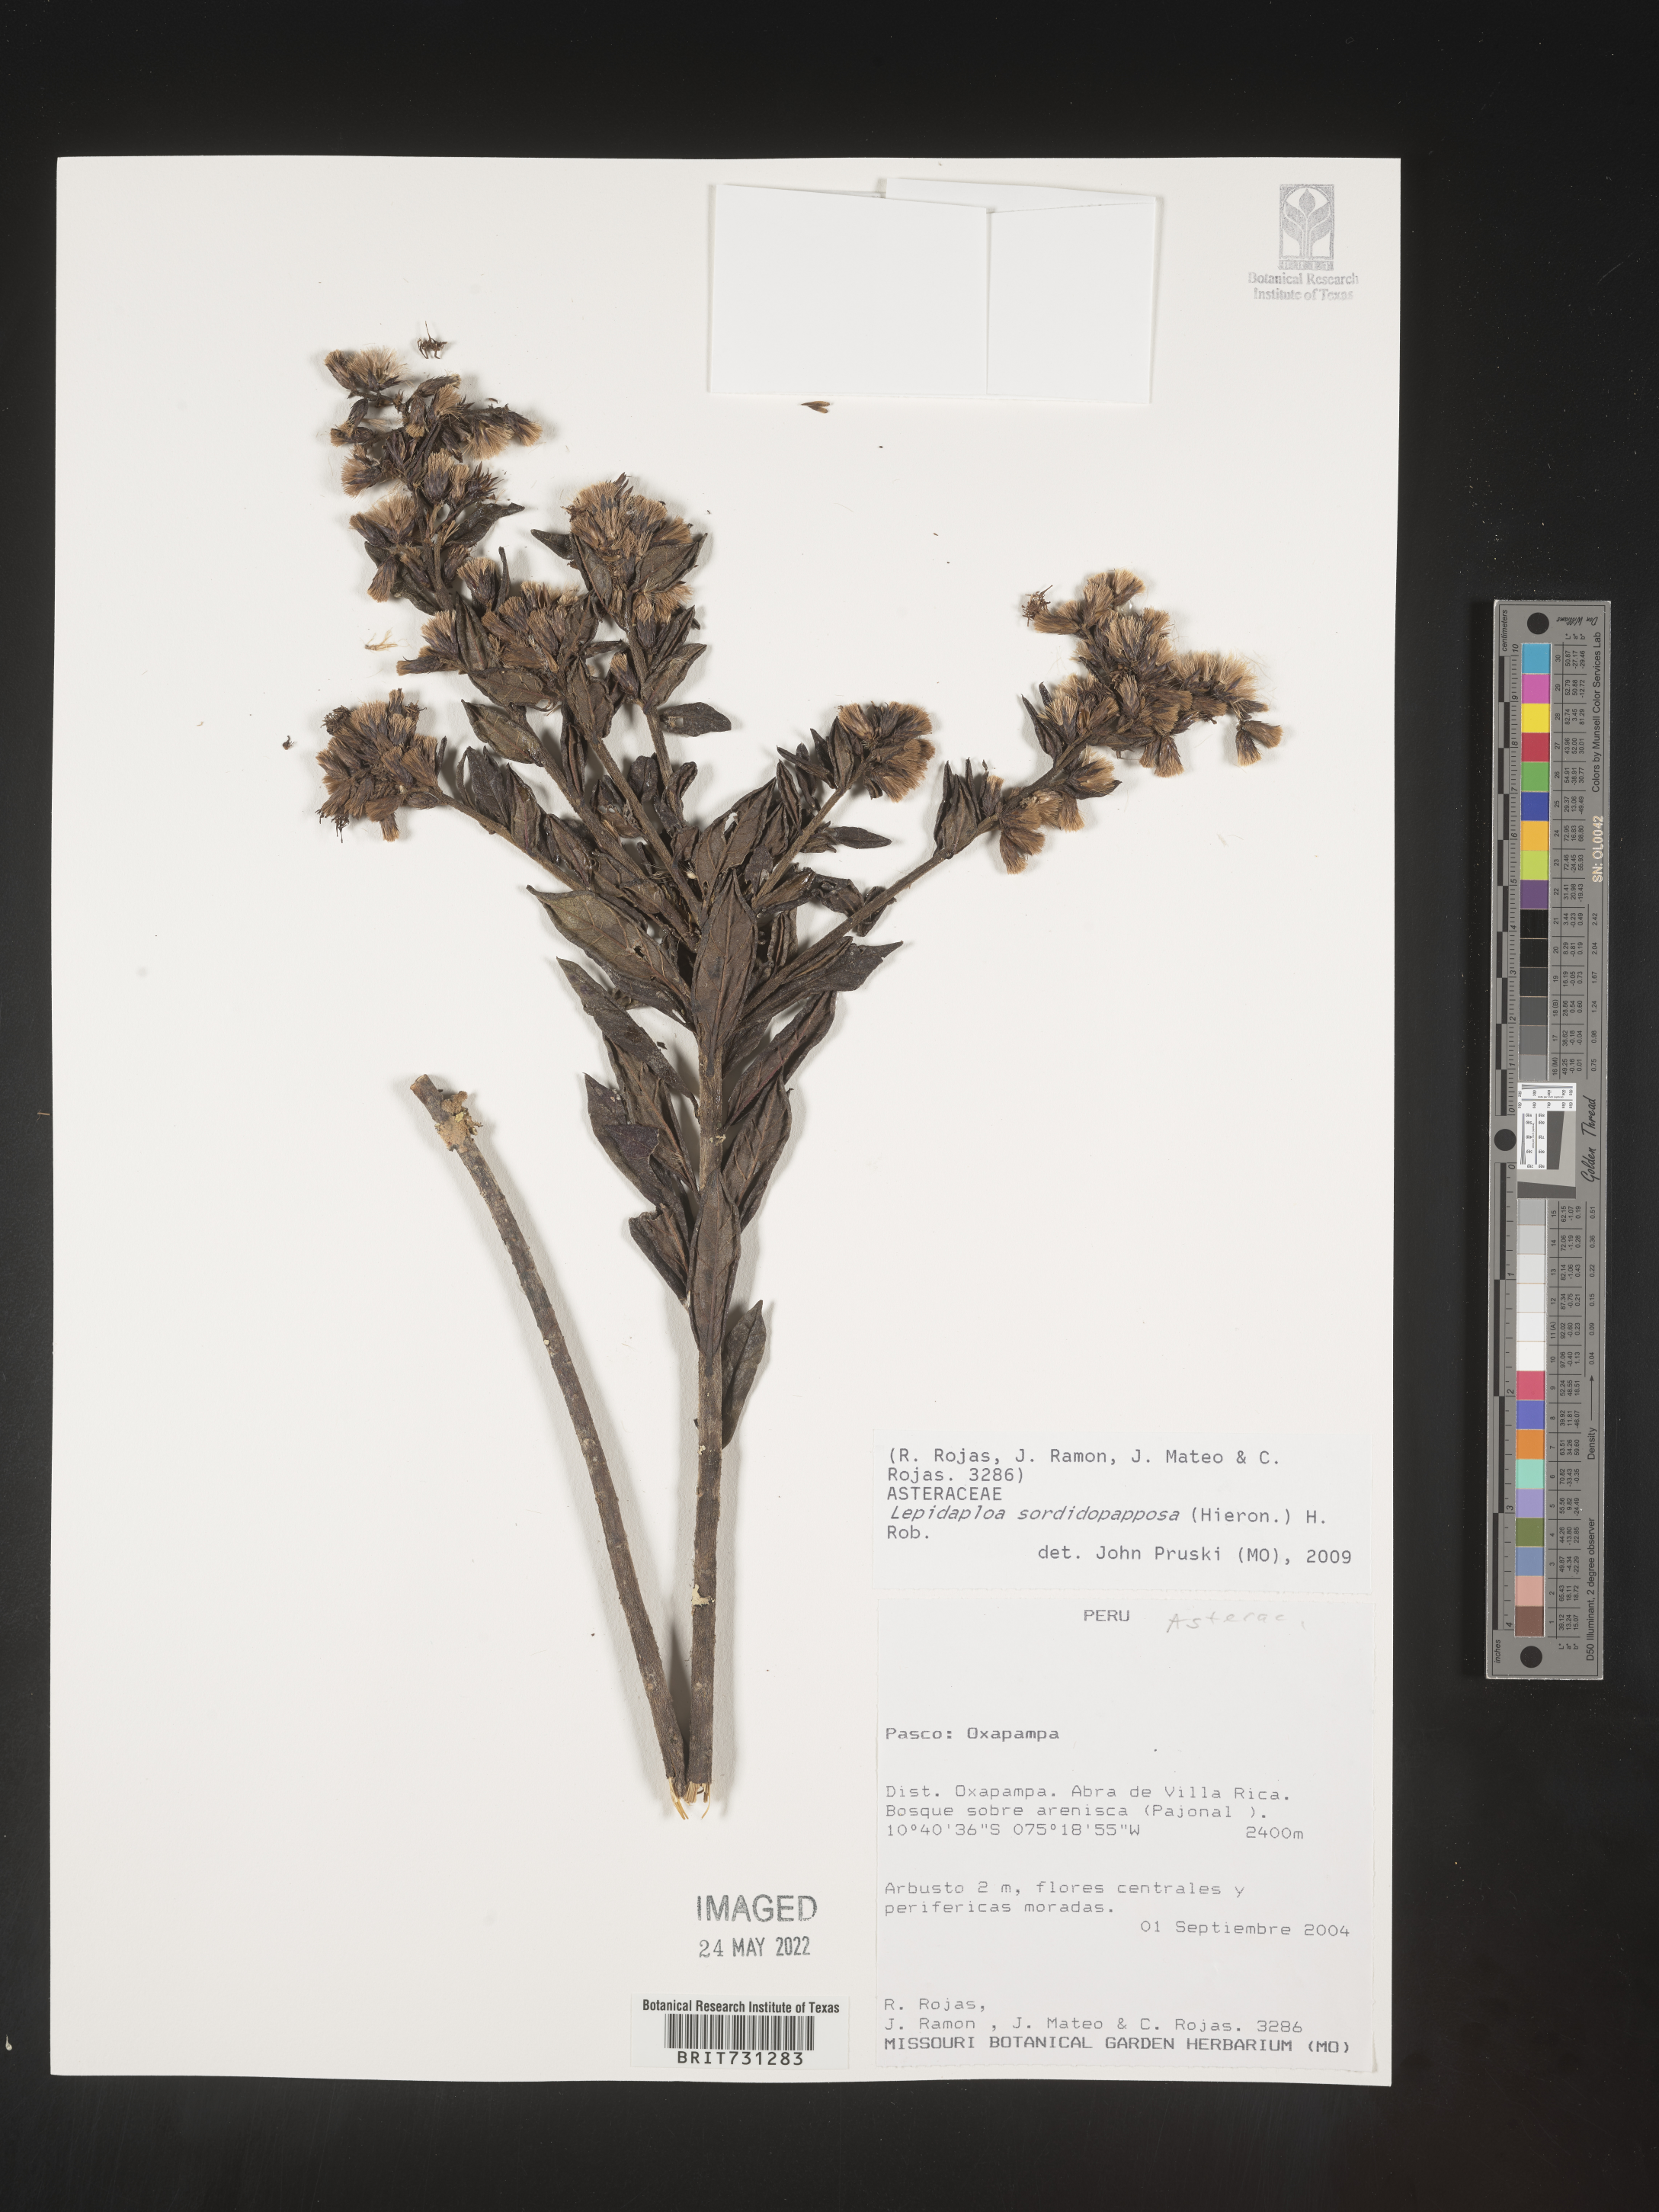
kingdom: Plantae
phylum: Tracheophyta
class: Magnoliopsida
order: Asterales
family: Asteraceae
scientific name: Asteraceae
